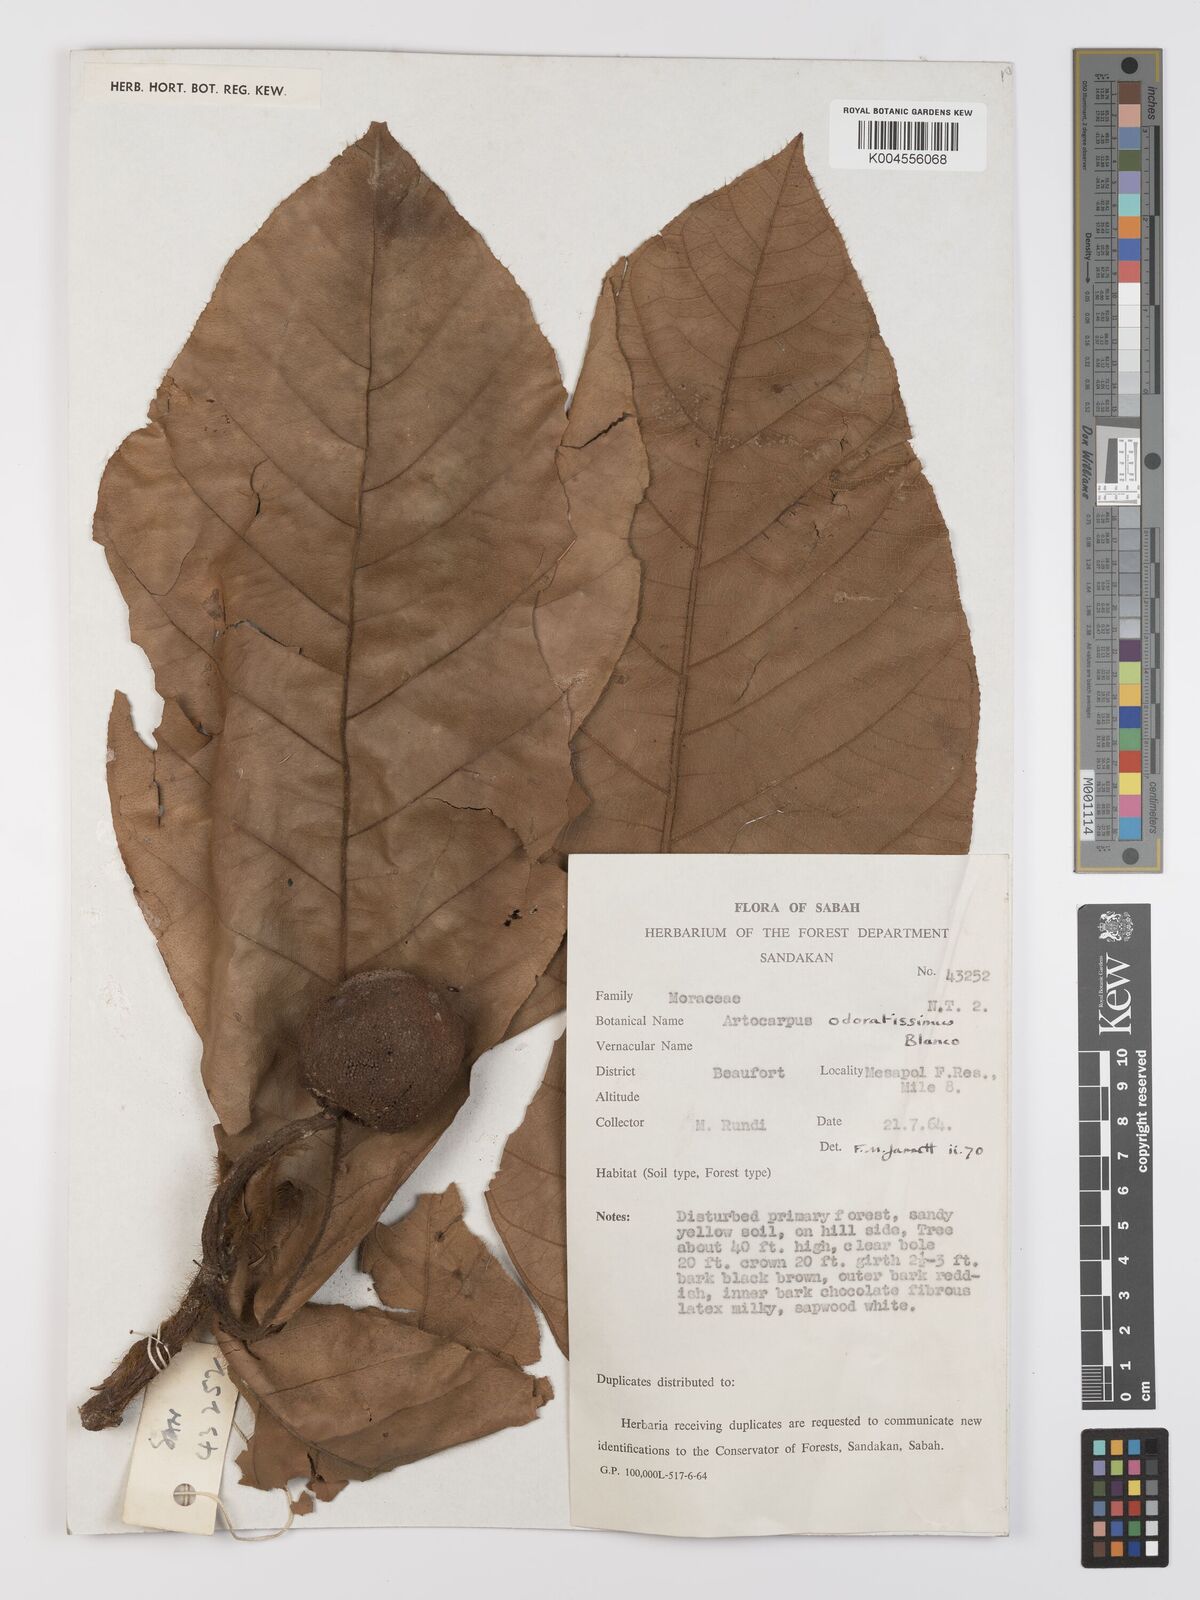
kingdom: Plantae
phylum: Tracheophyta
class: Magnoliopsida
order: Rosales
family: Moraceae
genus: Artocarpus
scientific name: Artocarpus odoratissimus
